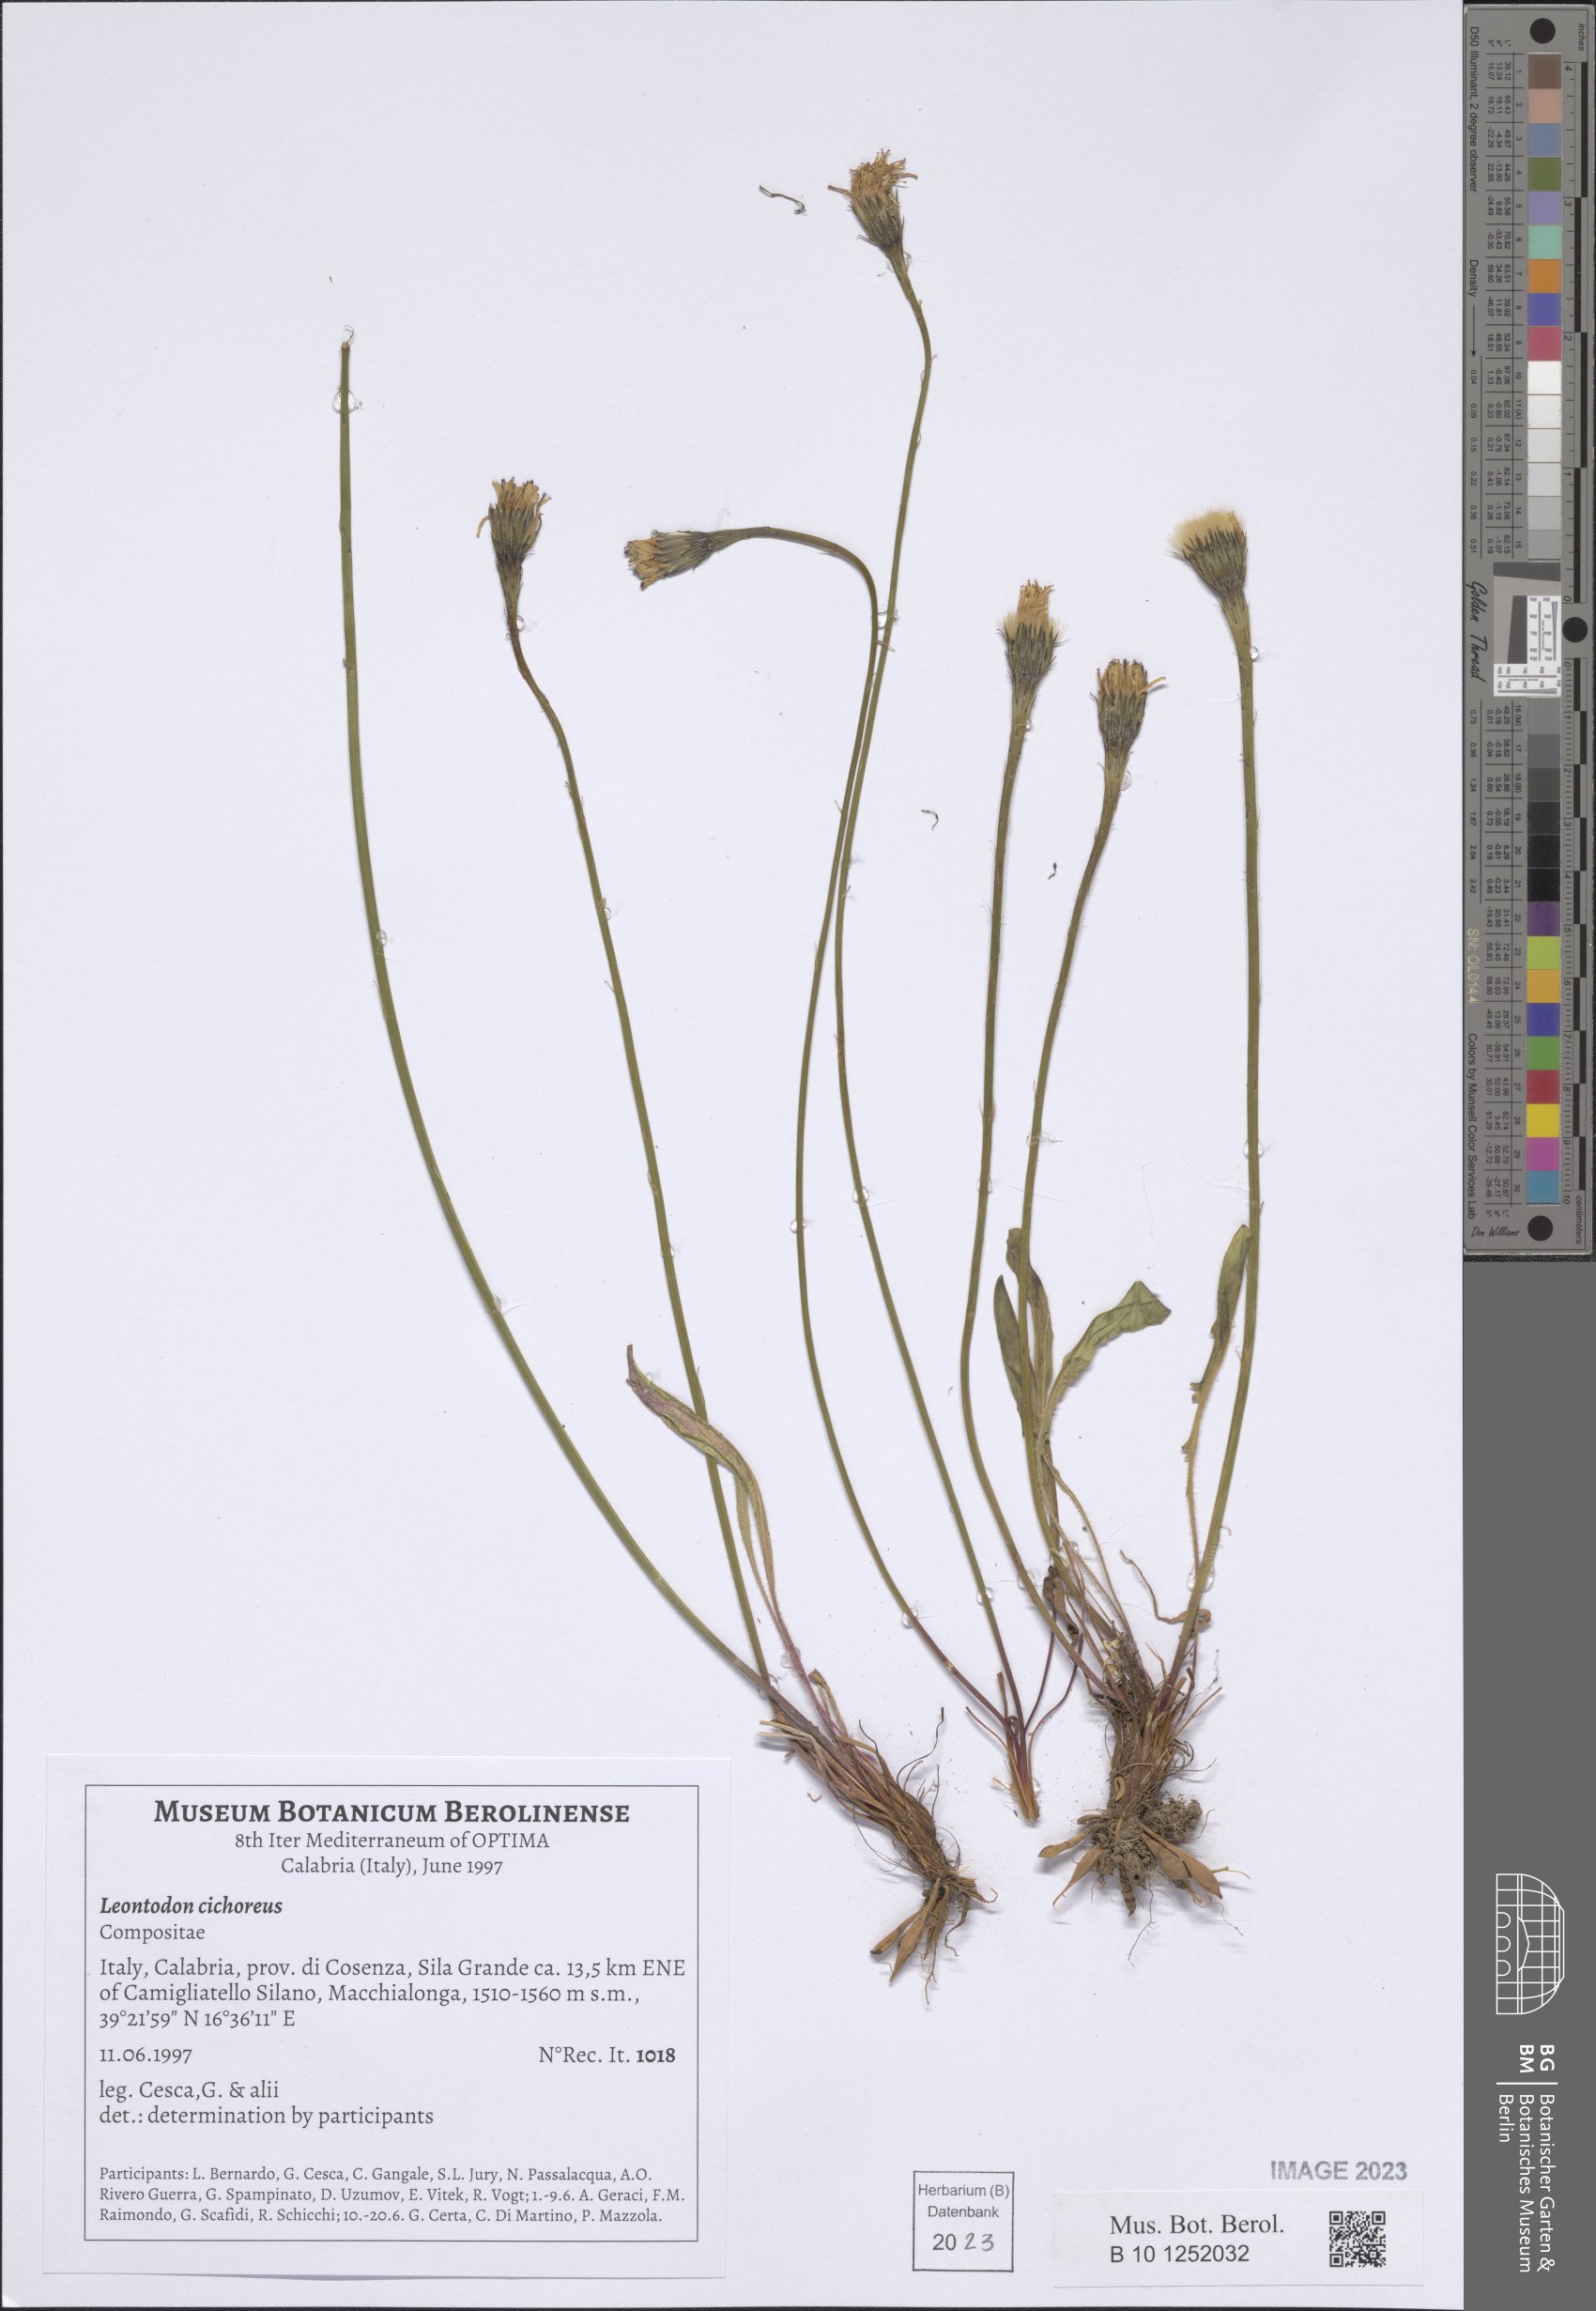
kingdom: Plantae
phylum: Tracheophyta
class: Magnoliopsida
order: Asterales
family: Asteraceae
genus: Scorzoneroides
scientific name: Scorzoneroides cichoriacea
